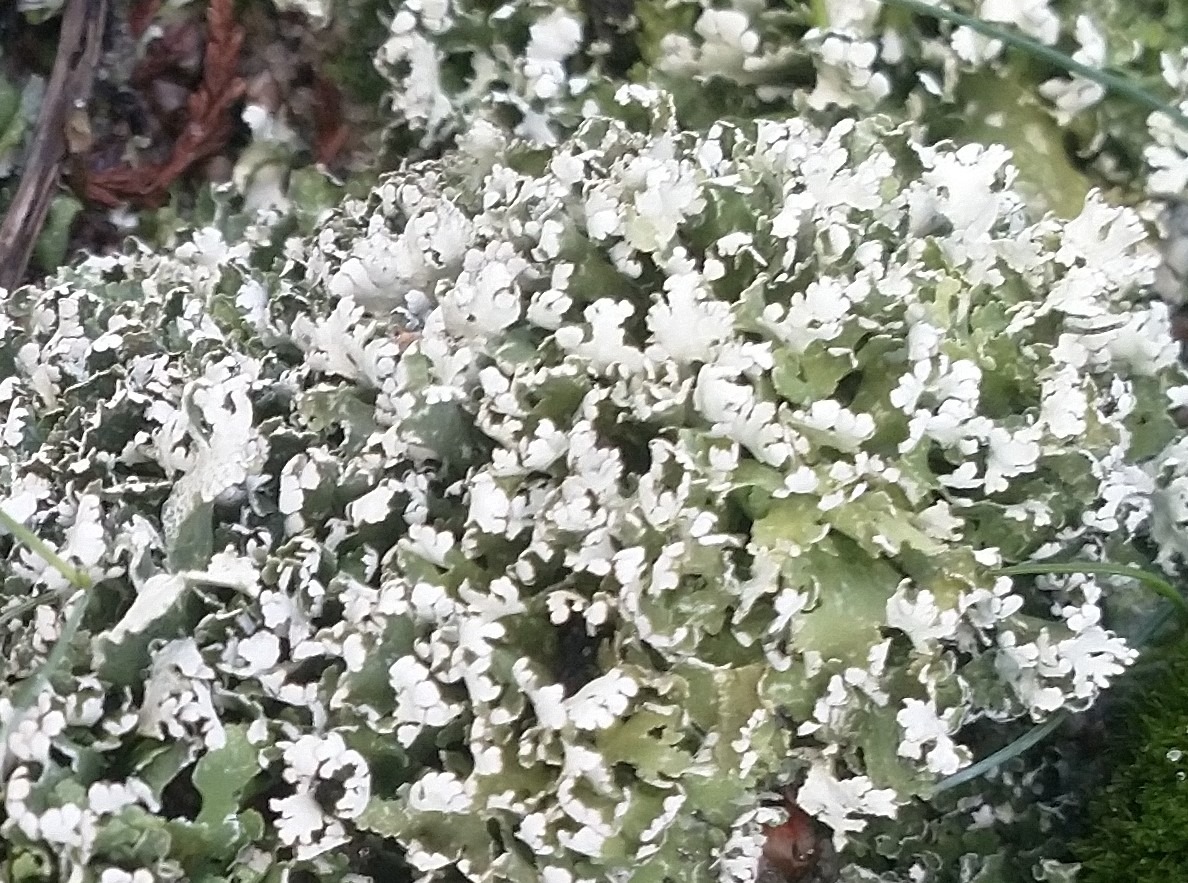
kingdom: Fungi
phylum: Ascomycota
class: Lecanoromycetes
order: Lecanorales
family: Cladoniaceae
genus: Cladonia
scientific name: Cladonia foliacea
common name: Fliget bægerlav
